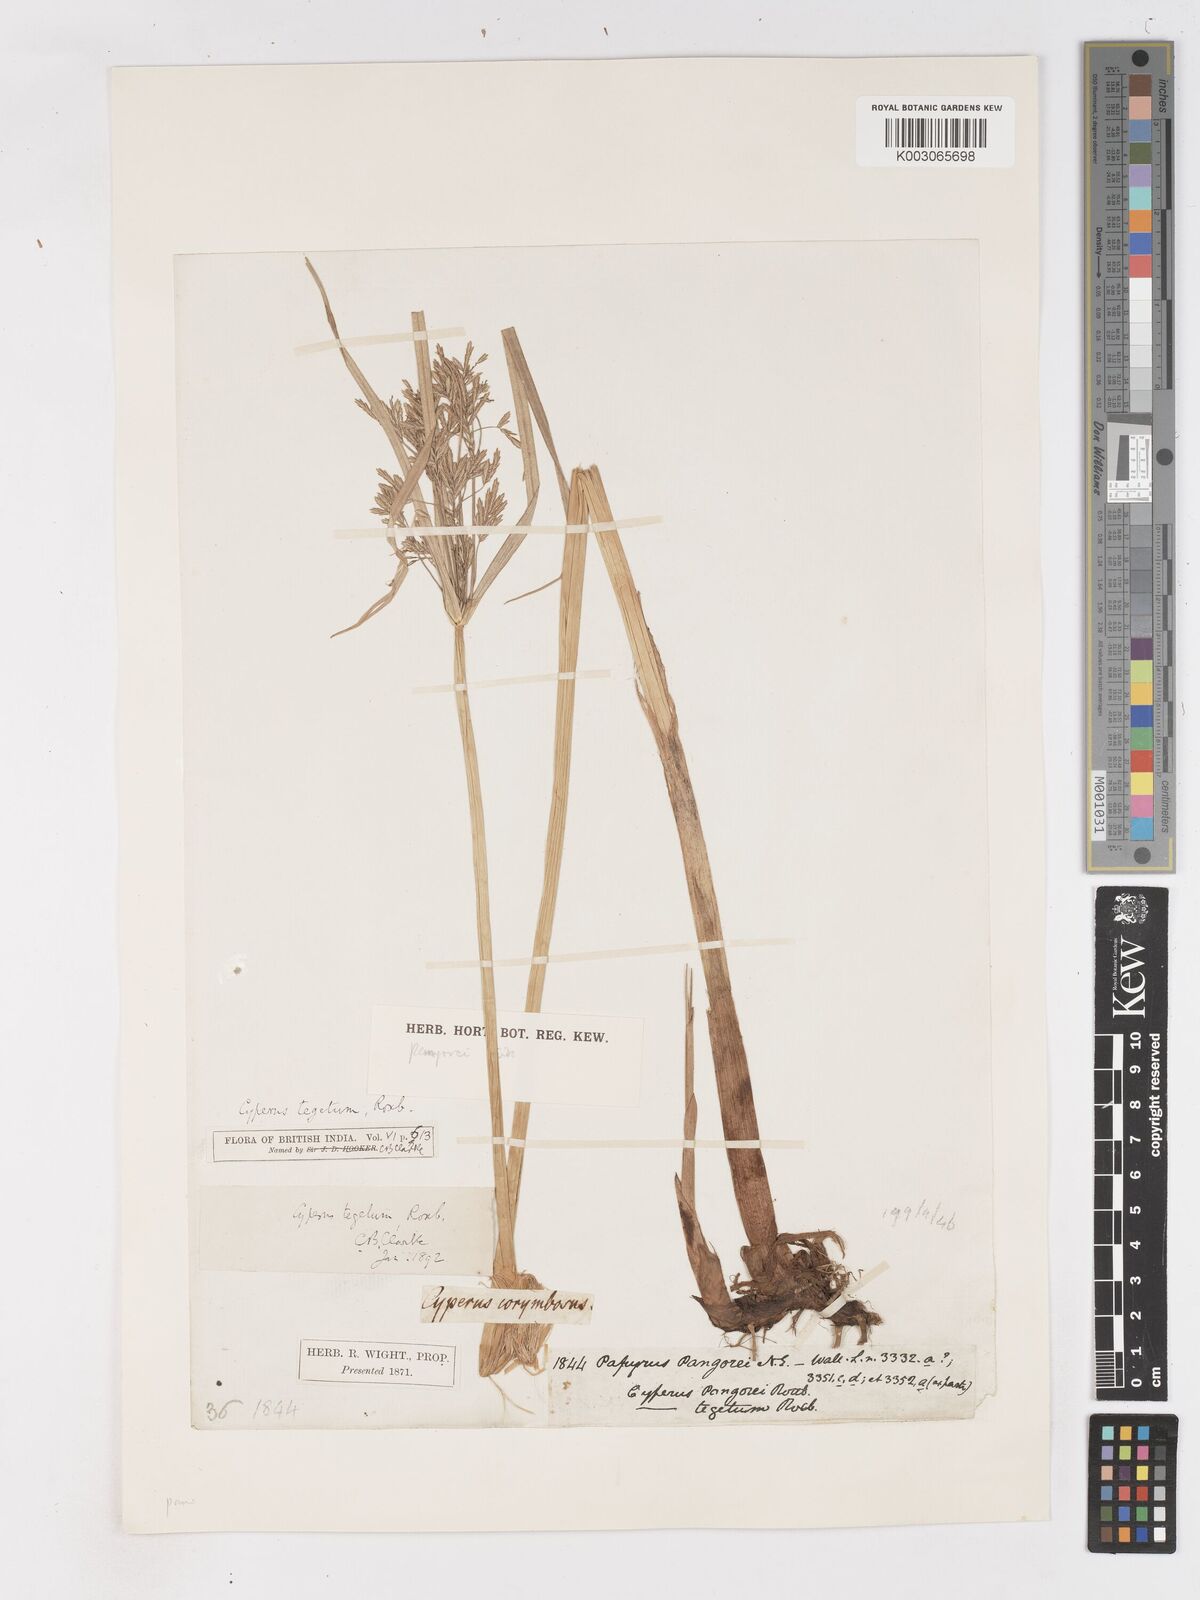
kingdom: Plantae
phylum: Tracheophyta
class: Liliopsida
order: Poales
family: Cyperaceae
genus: Cyperus
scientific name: Cyperus pangorei
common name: Mat sedge
